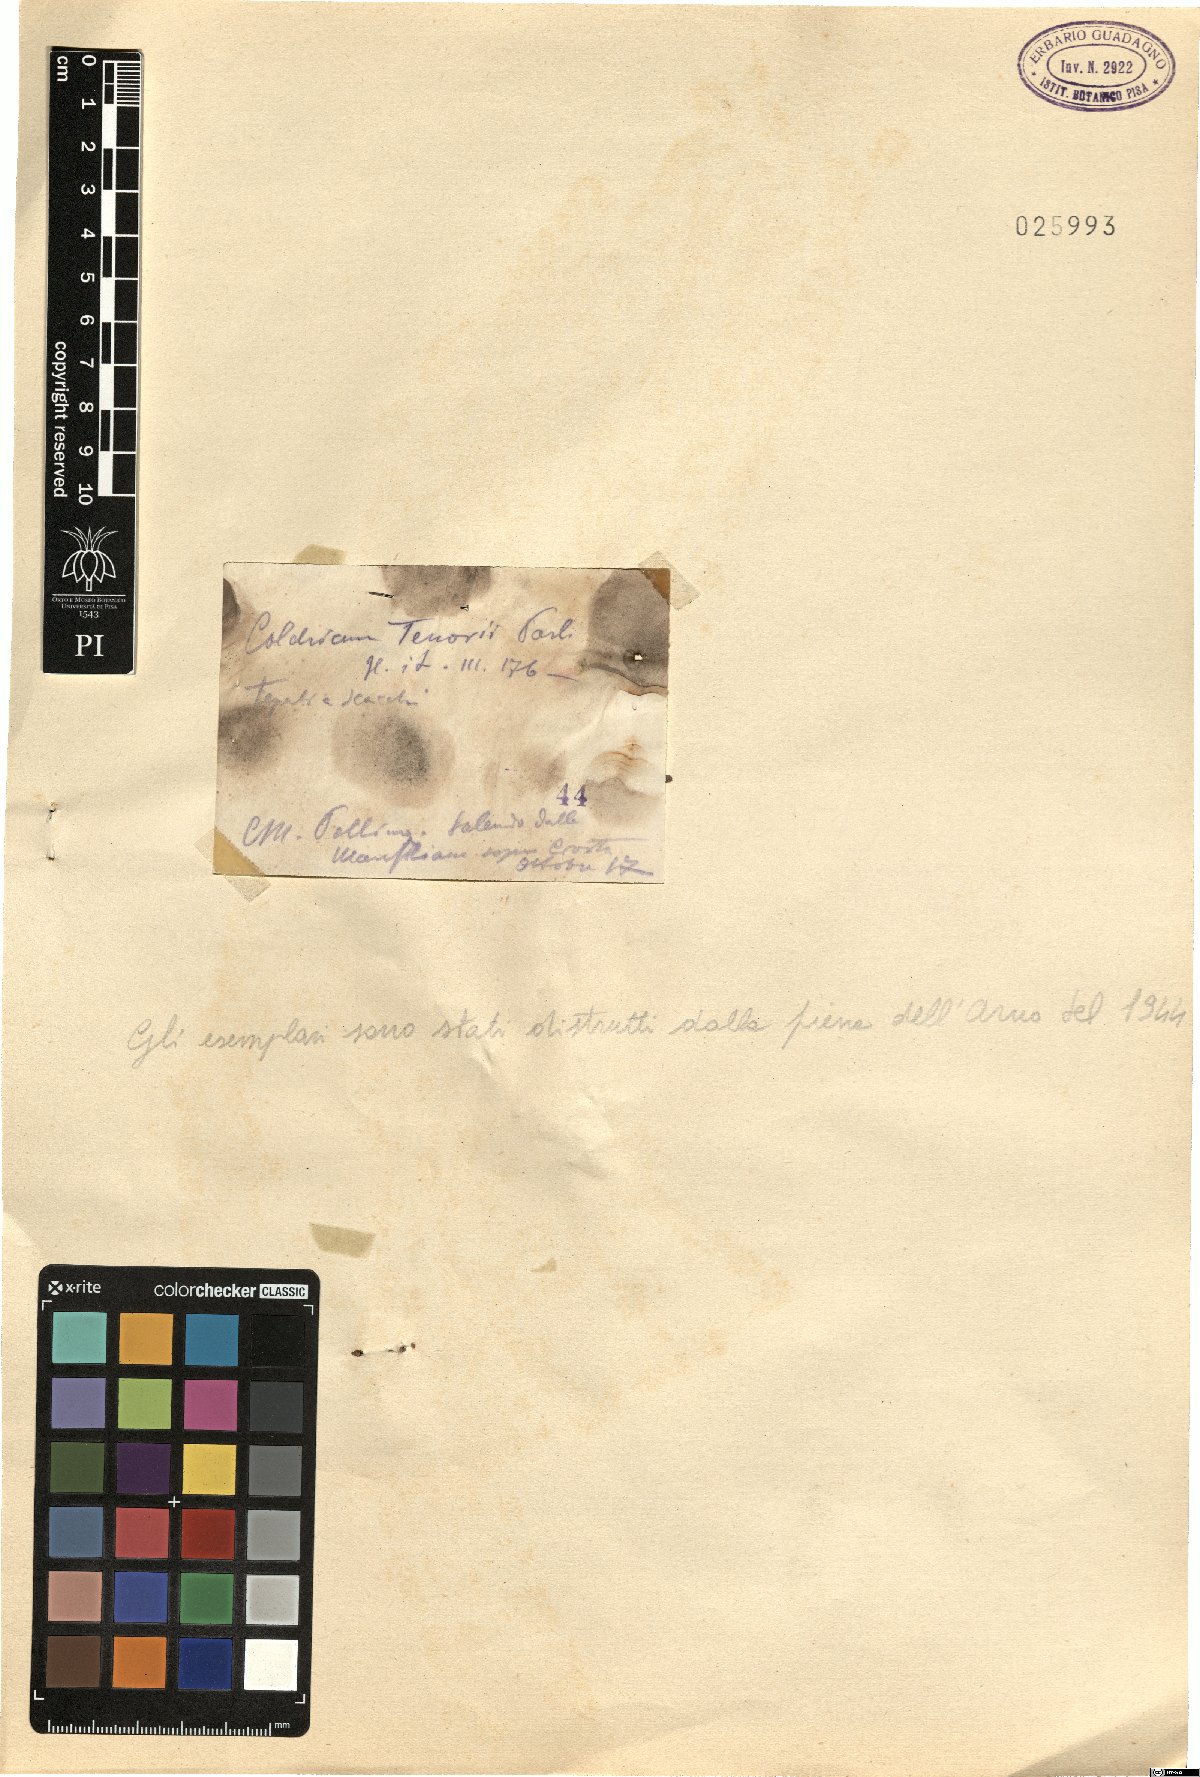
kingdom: Plantae
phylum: Tracheophyta
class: Liliopsida
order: Liliales
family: Colchicaceae
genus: Colchicum
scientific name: Colchicum cilicicum
